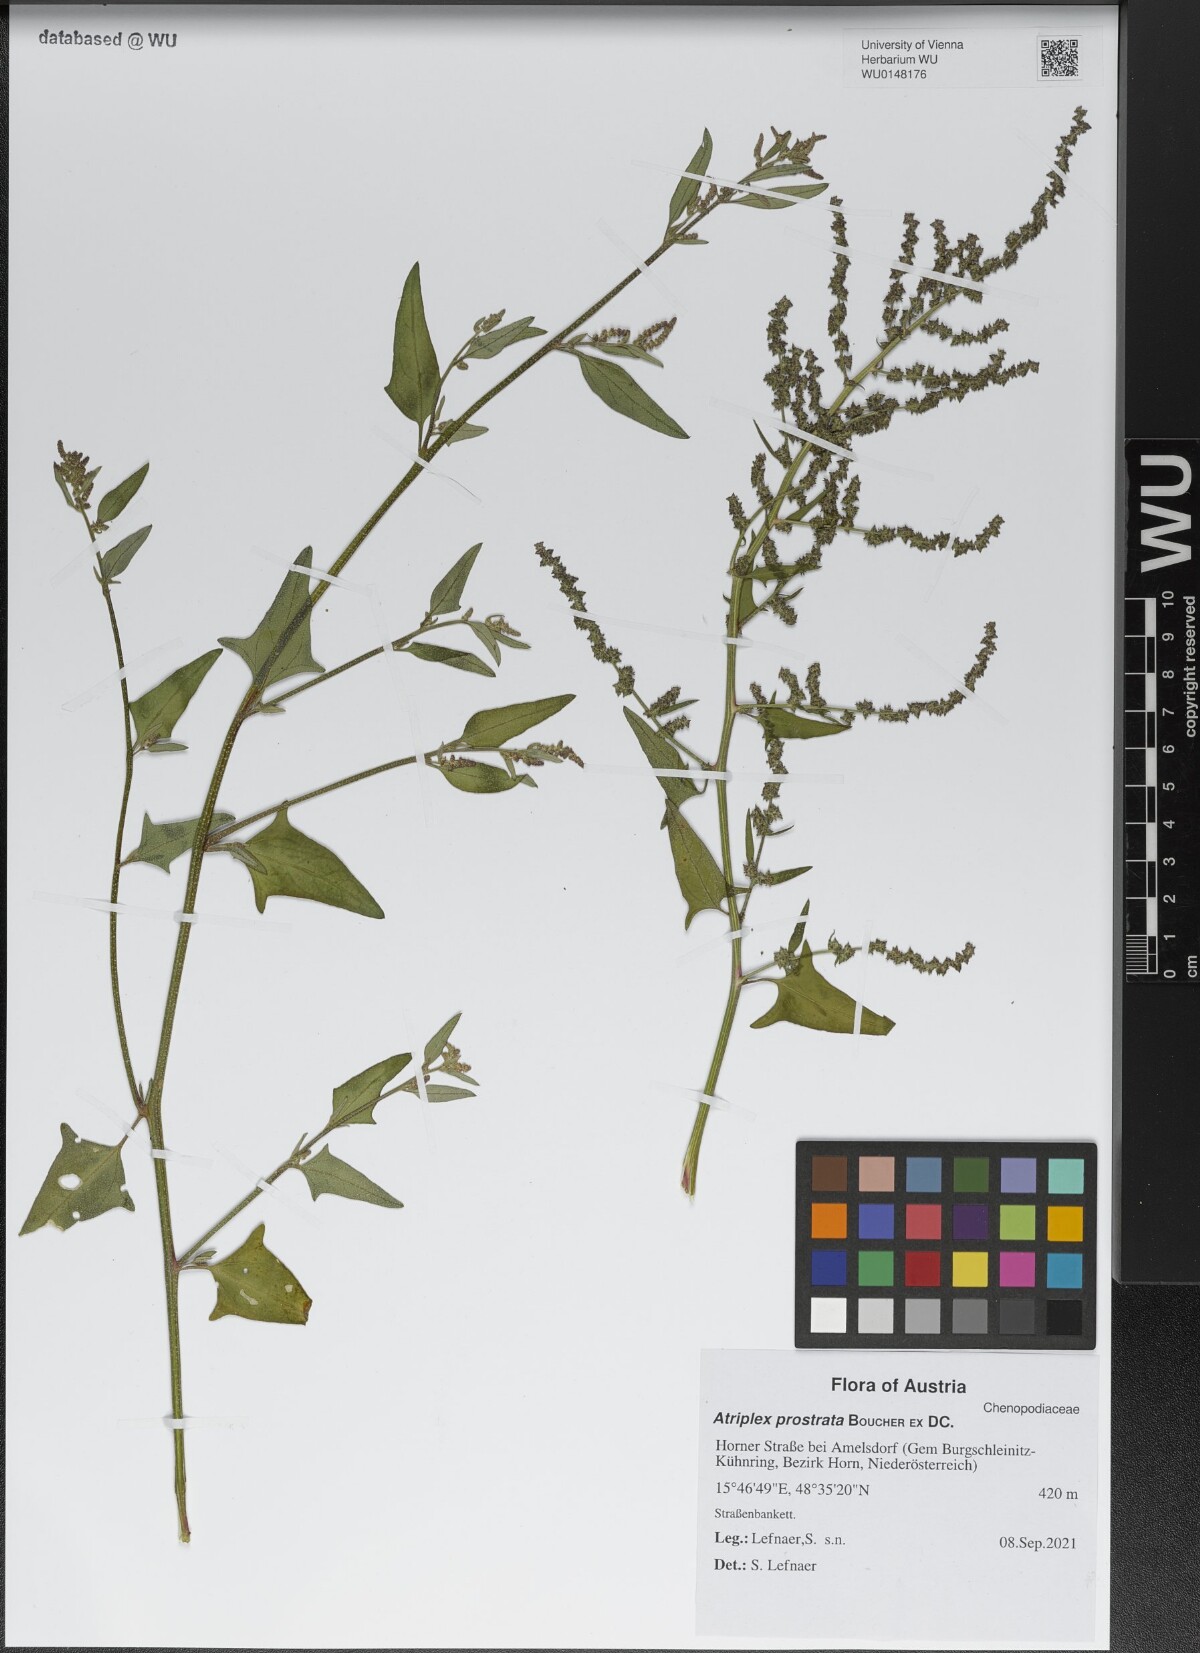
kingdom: Plantae
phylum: Tracheophyta
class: Magnoliopsida
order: Caryophyllales
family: Amaranthaceae
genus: Atriplex
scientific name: Atriplex prostrata
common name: Spear-leaved orache
